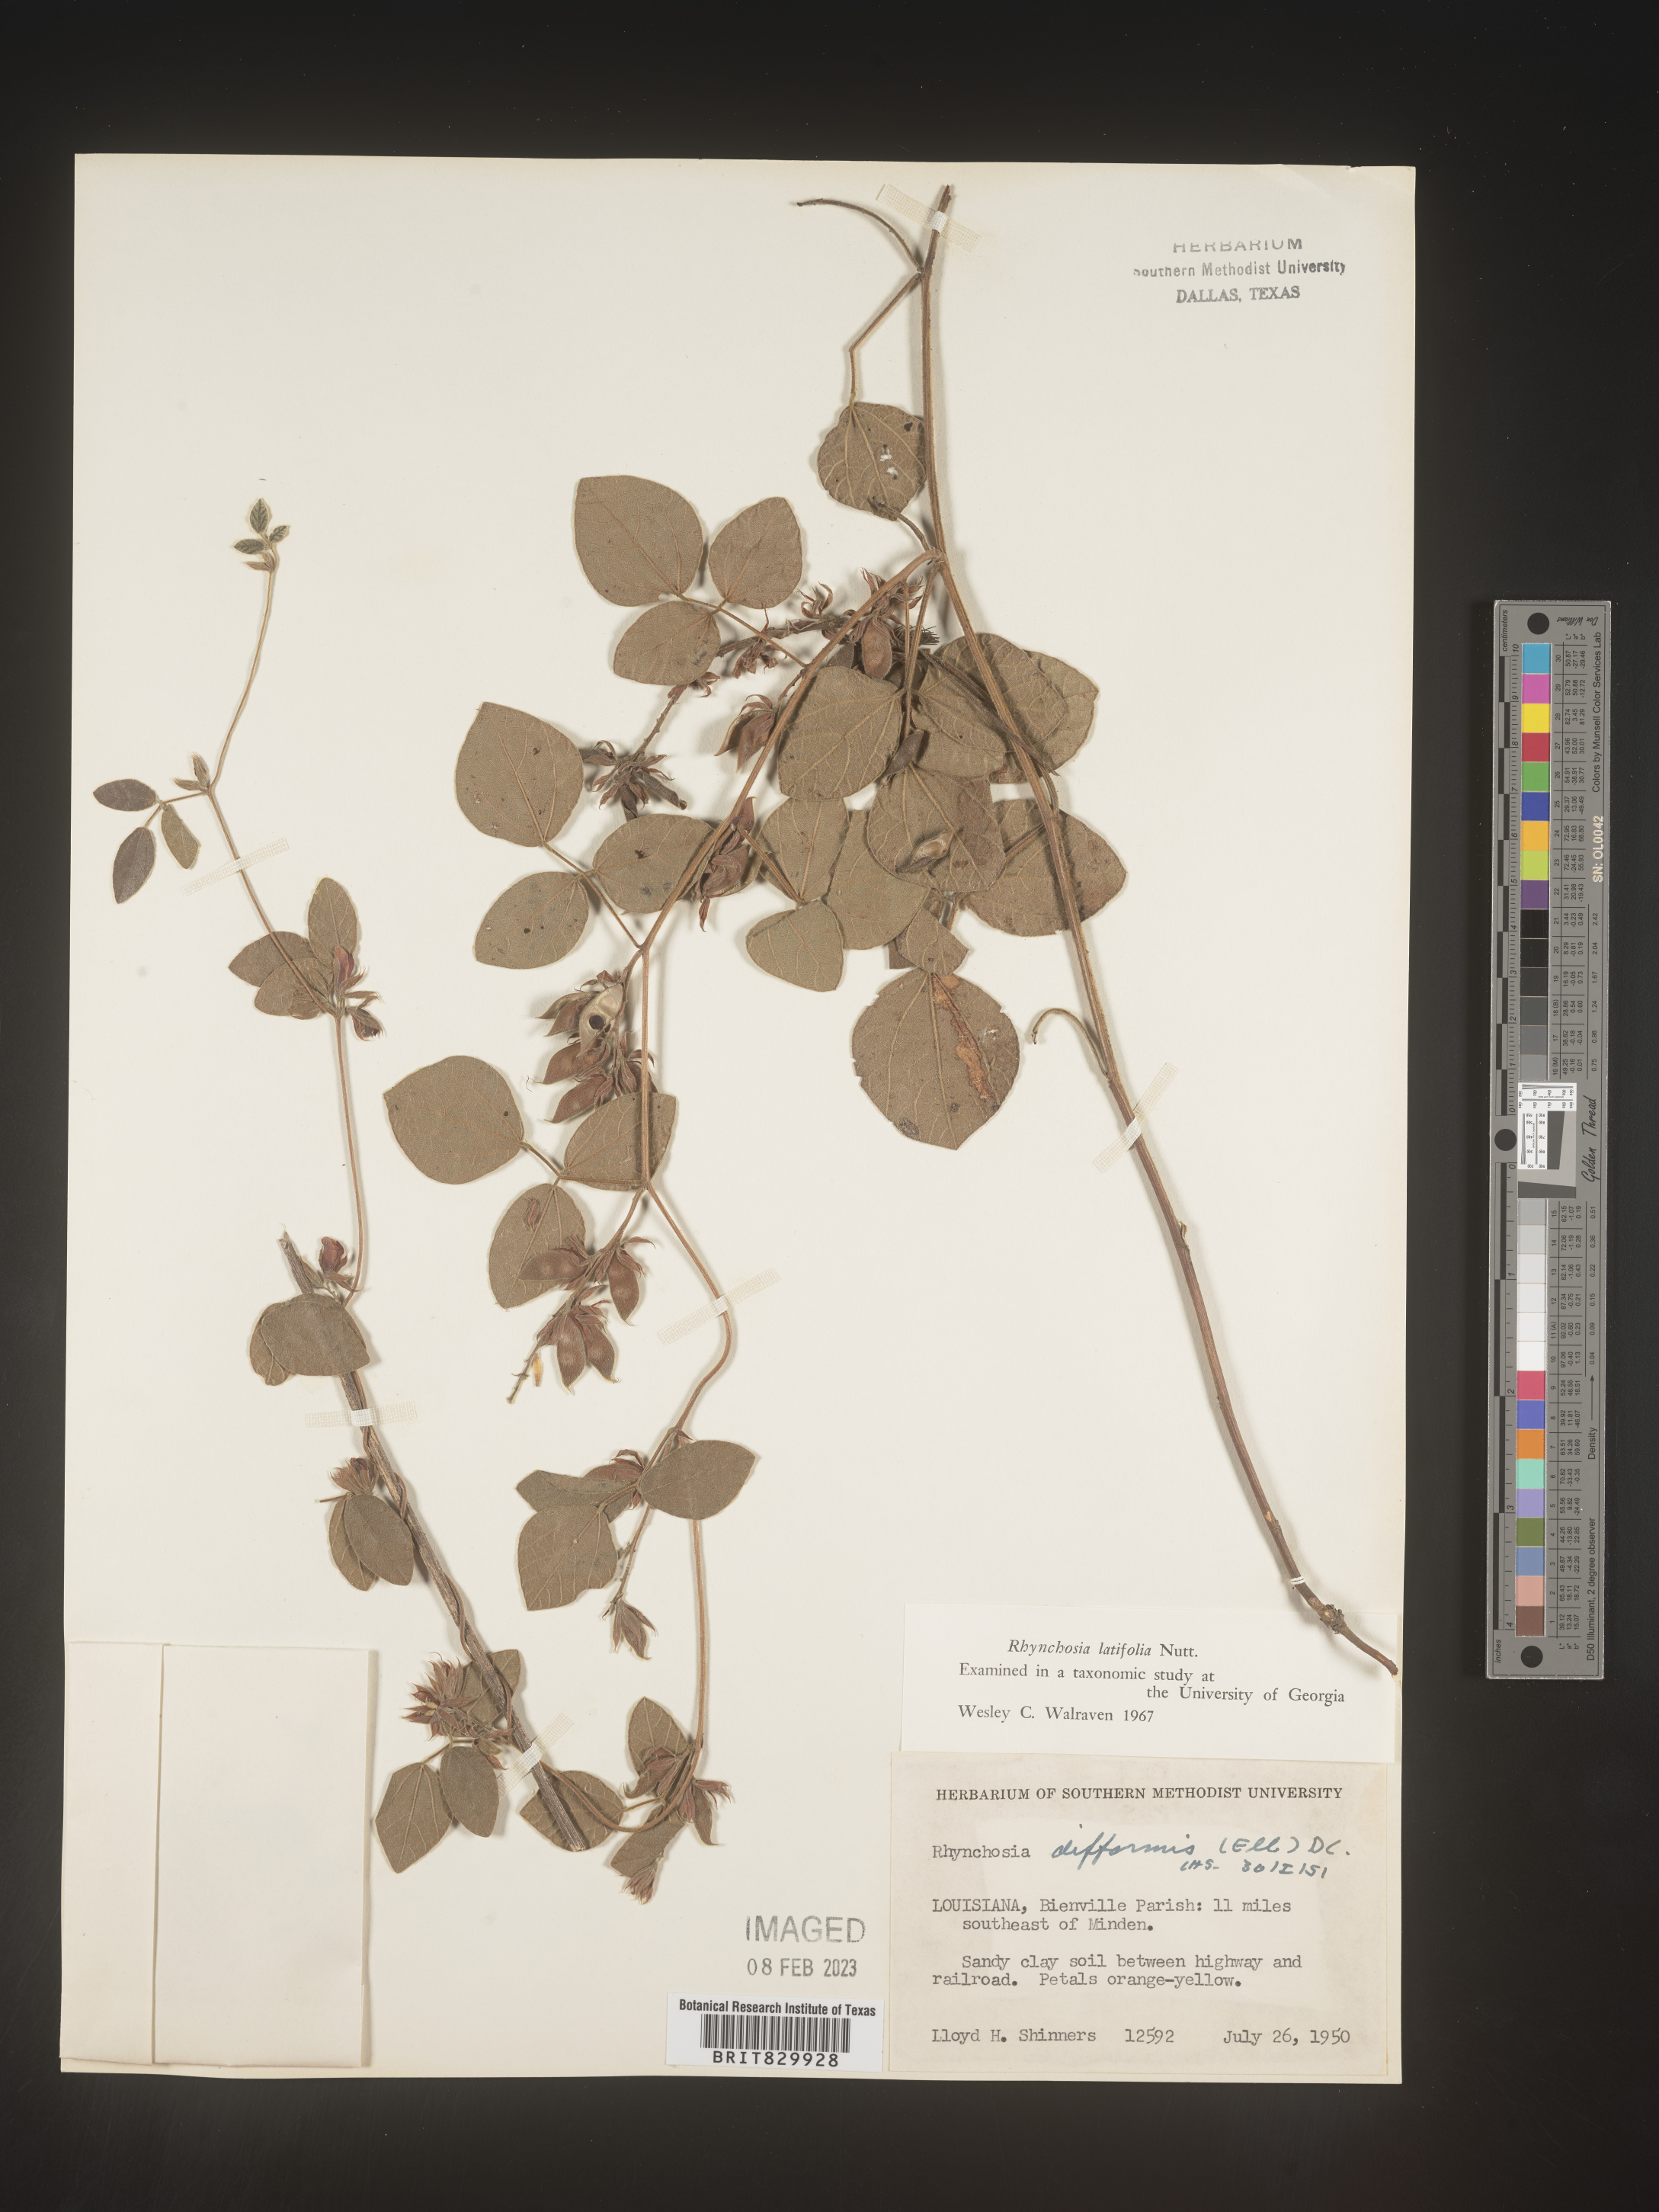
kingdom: Plantae
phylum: Tracheophyta
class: Magnoliopsida
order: Fabales
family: Fabaceae
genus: Rhynchosia
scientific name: Rhynchosia latifolia
